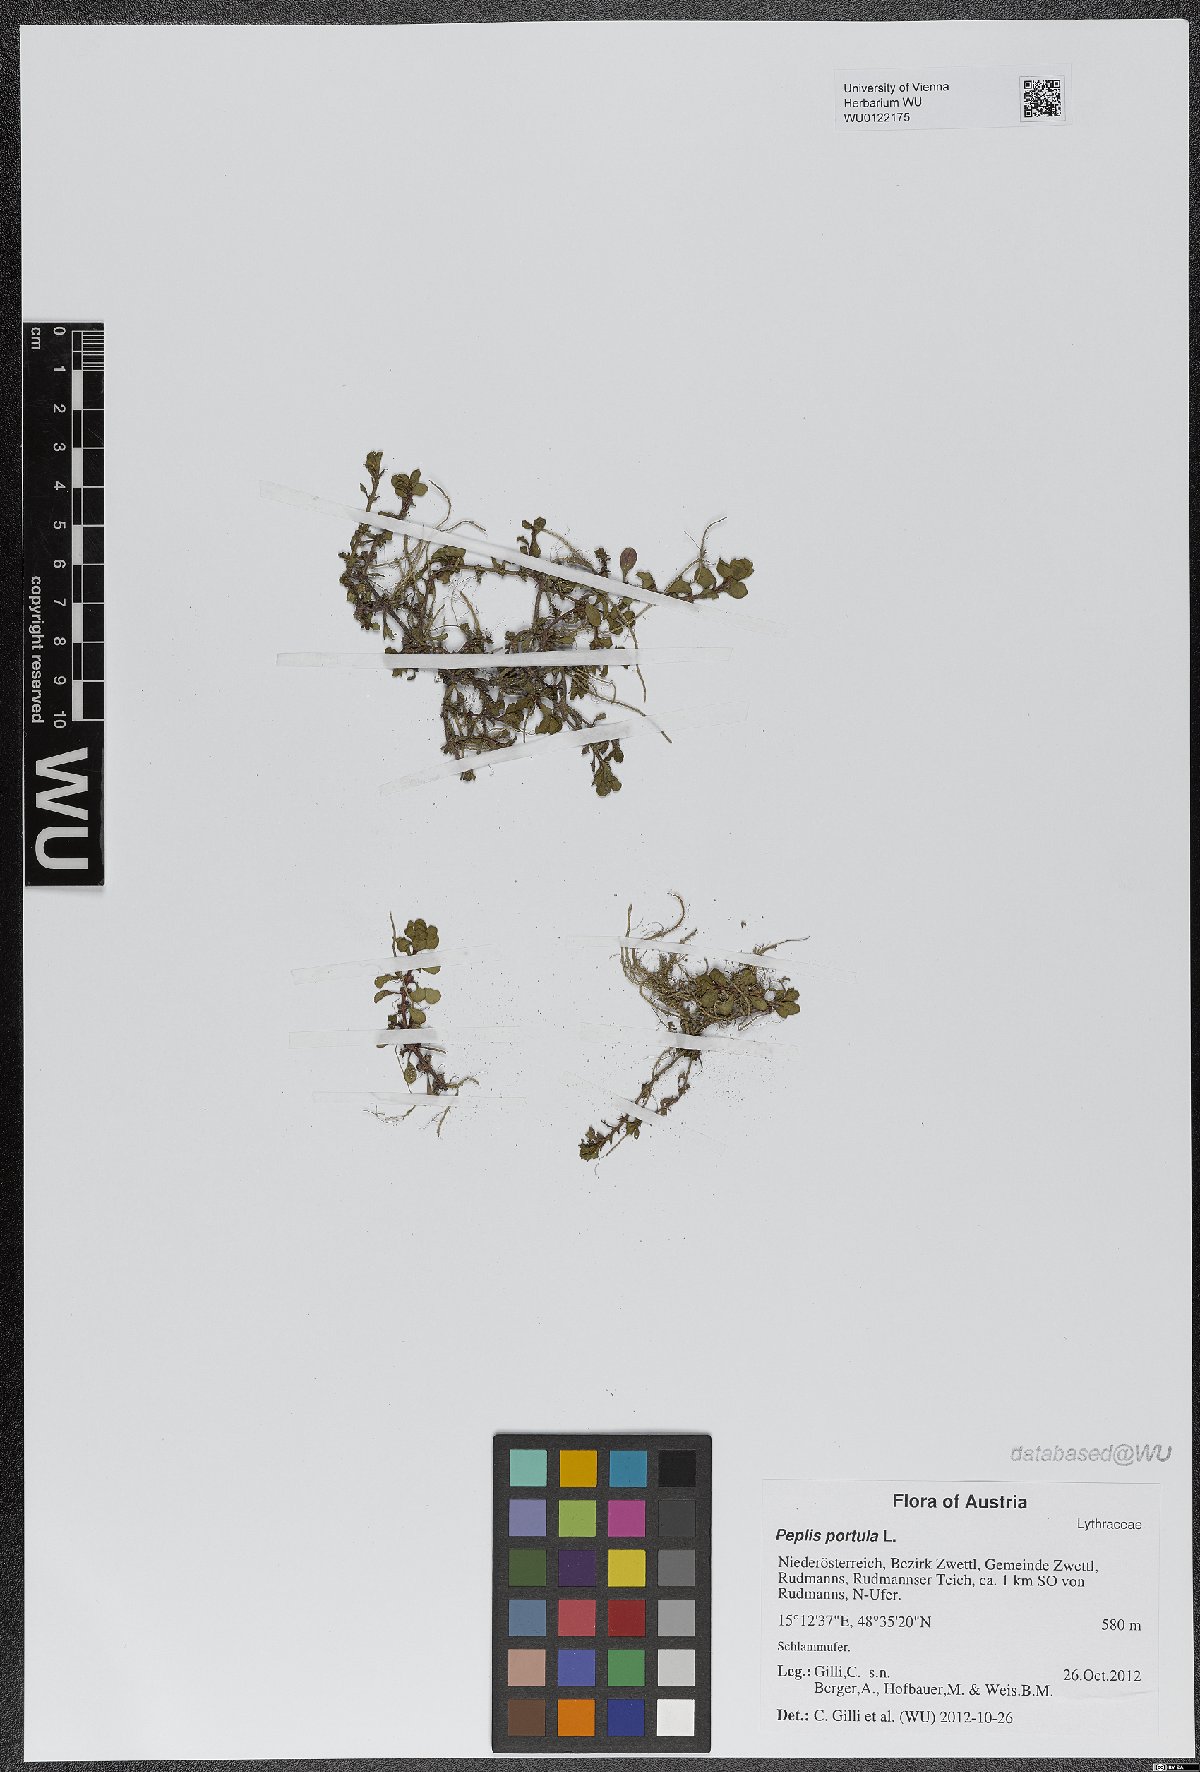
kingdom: Plantae
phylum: Tracheophyta
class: Magnoliopsida
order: Myrtales
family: Lythraceae
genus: Lythrum
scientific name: Lythrum portula
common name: Water purslane
